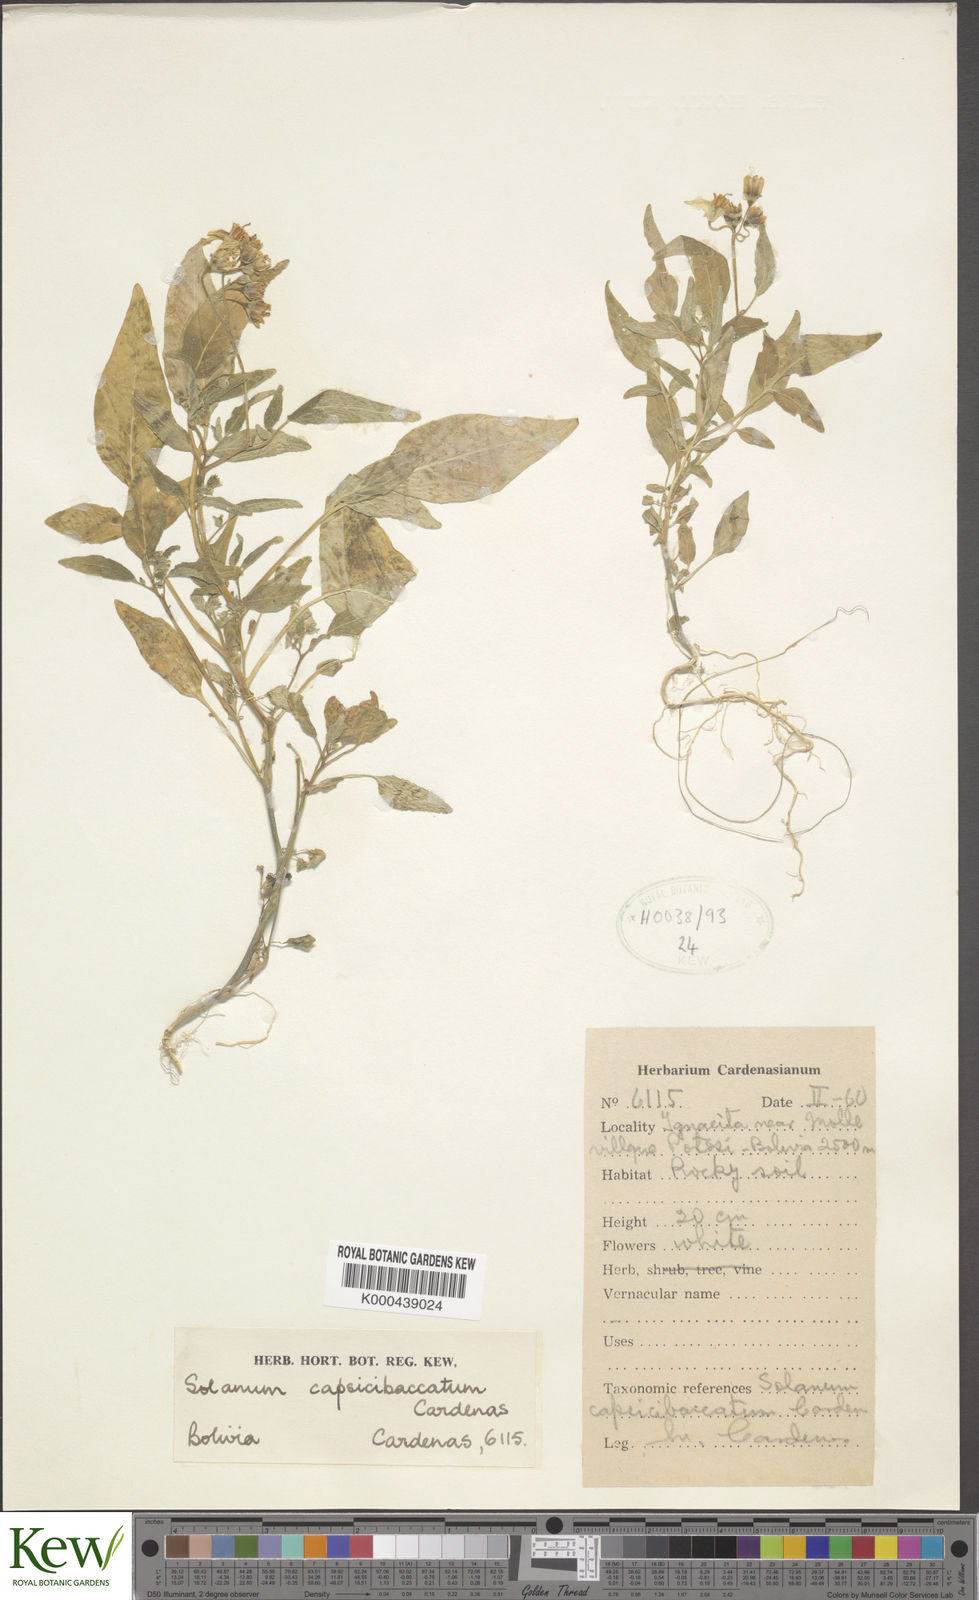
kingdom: Plantae
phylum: Tracheophyta
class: Magnoliopsida
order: Solanales
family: Solanaceae
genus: Solanum
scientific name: Solanum capsibaccatum
